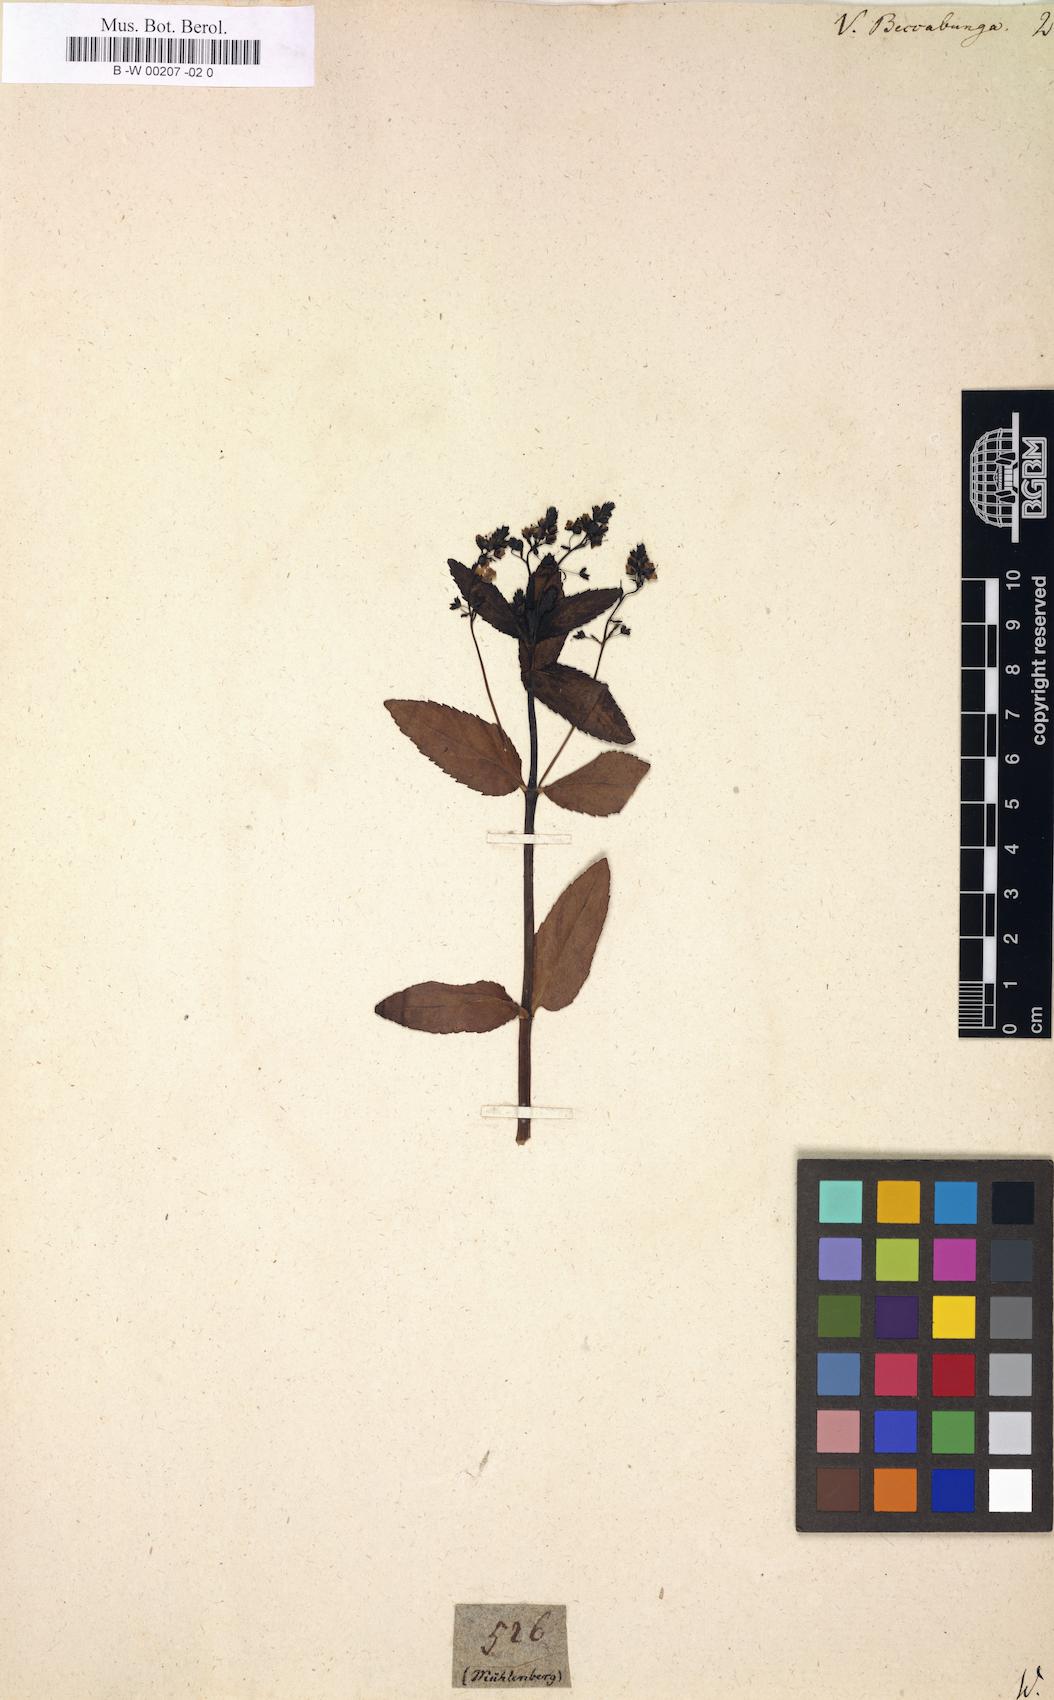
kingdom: Plantae
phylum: Tracheophyta
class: Magnoliopsida
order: Lamiales
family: Plantaginaceae
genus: Veronica
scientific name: Veronica beccabunga
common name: Brooklime
